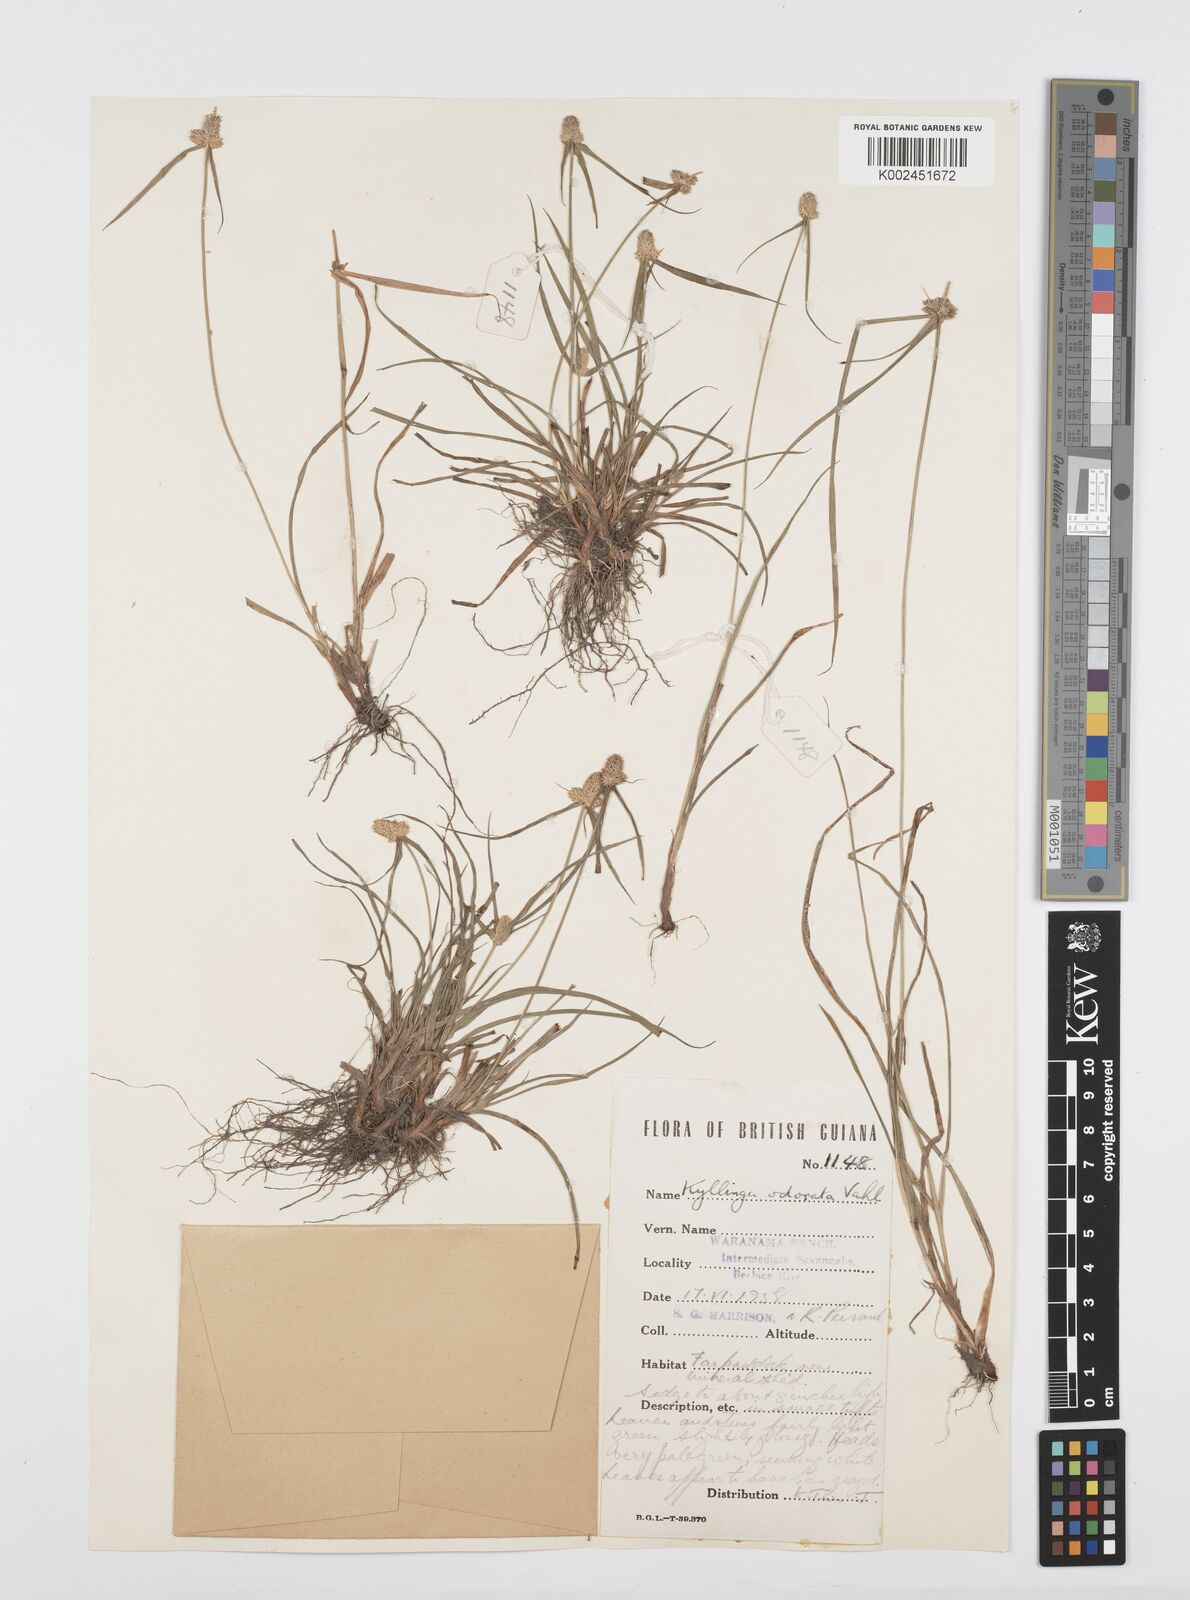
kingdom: Plantae
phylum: Tracheophyta
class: Liliopsida
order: Poales
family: Cyperaceae
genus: Cyperus
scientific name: Cyperus
